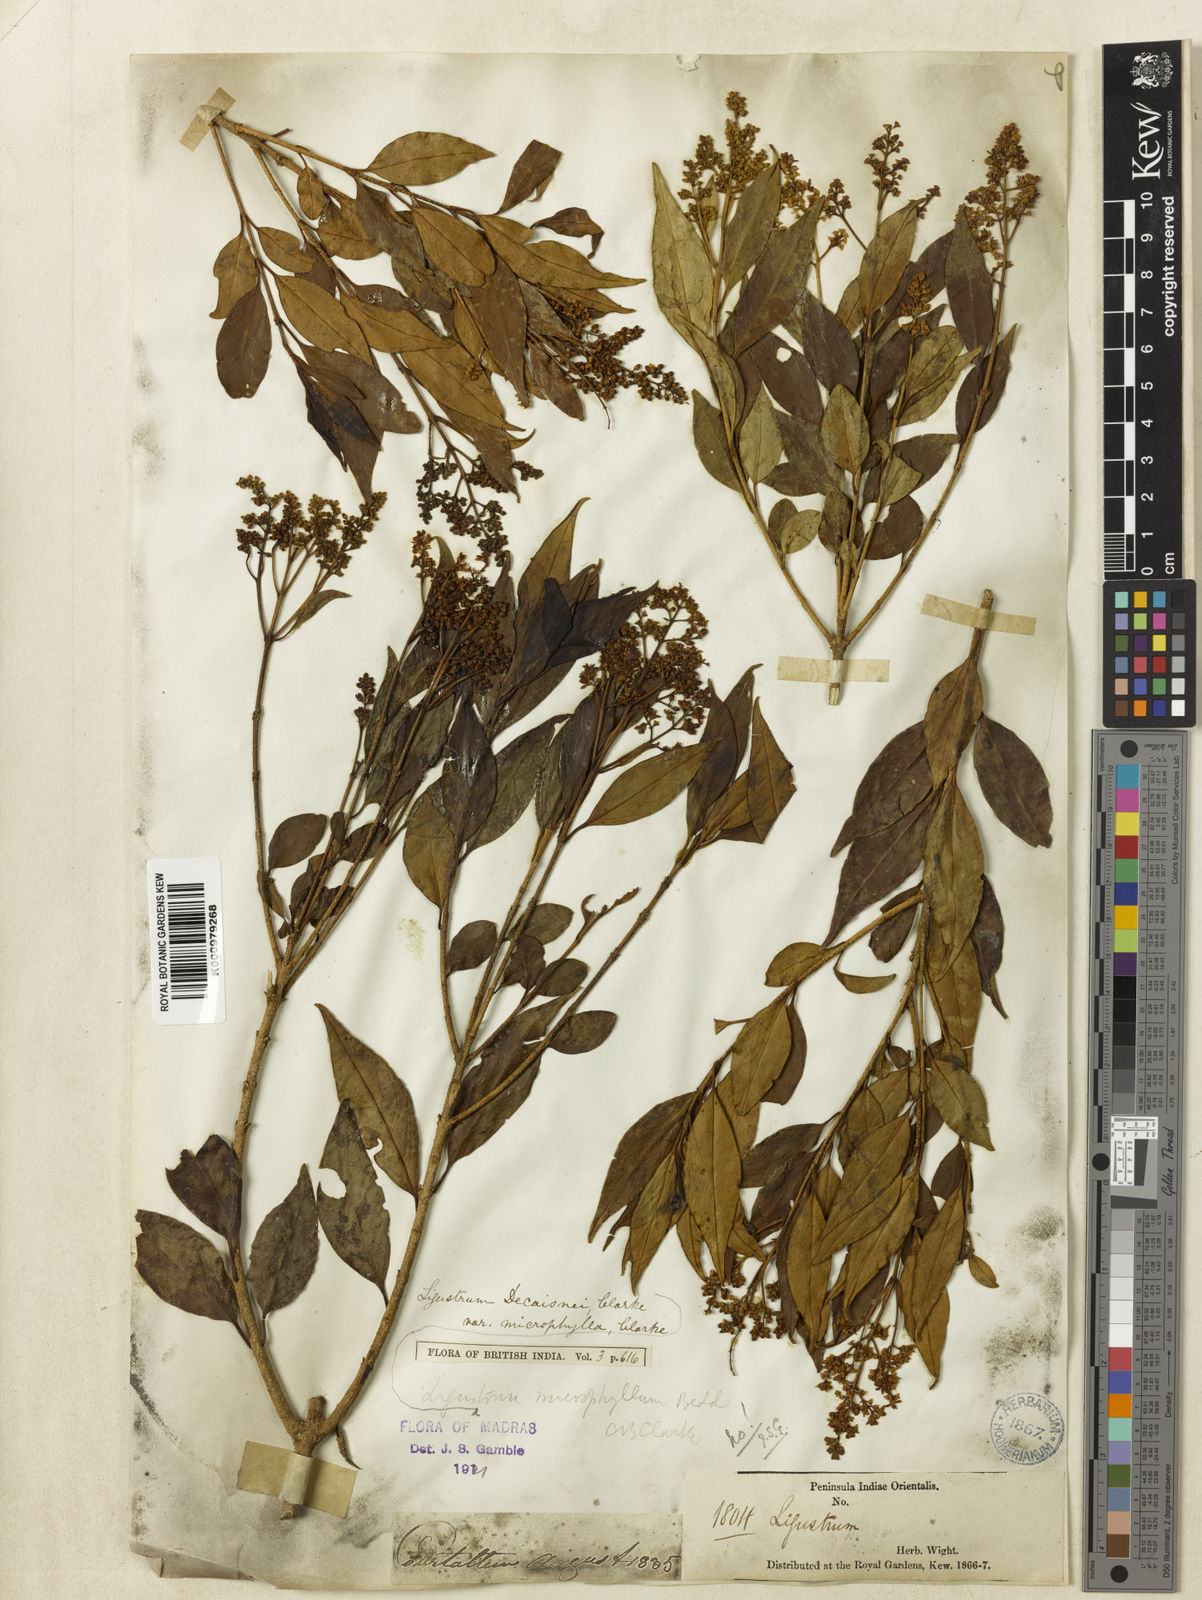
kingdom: Plantae
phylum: Tracheophyta
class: Magnoliopsida
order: Lamiales
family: Oleaceae
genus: Ligustrum
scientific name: Ligustrum robustum
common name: Tree privet
